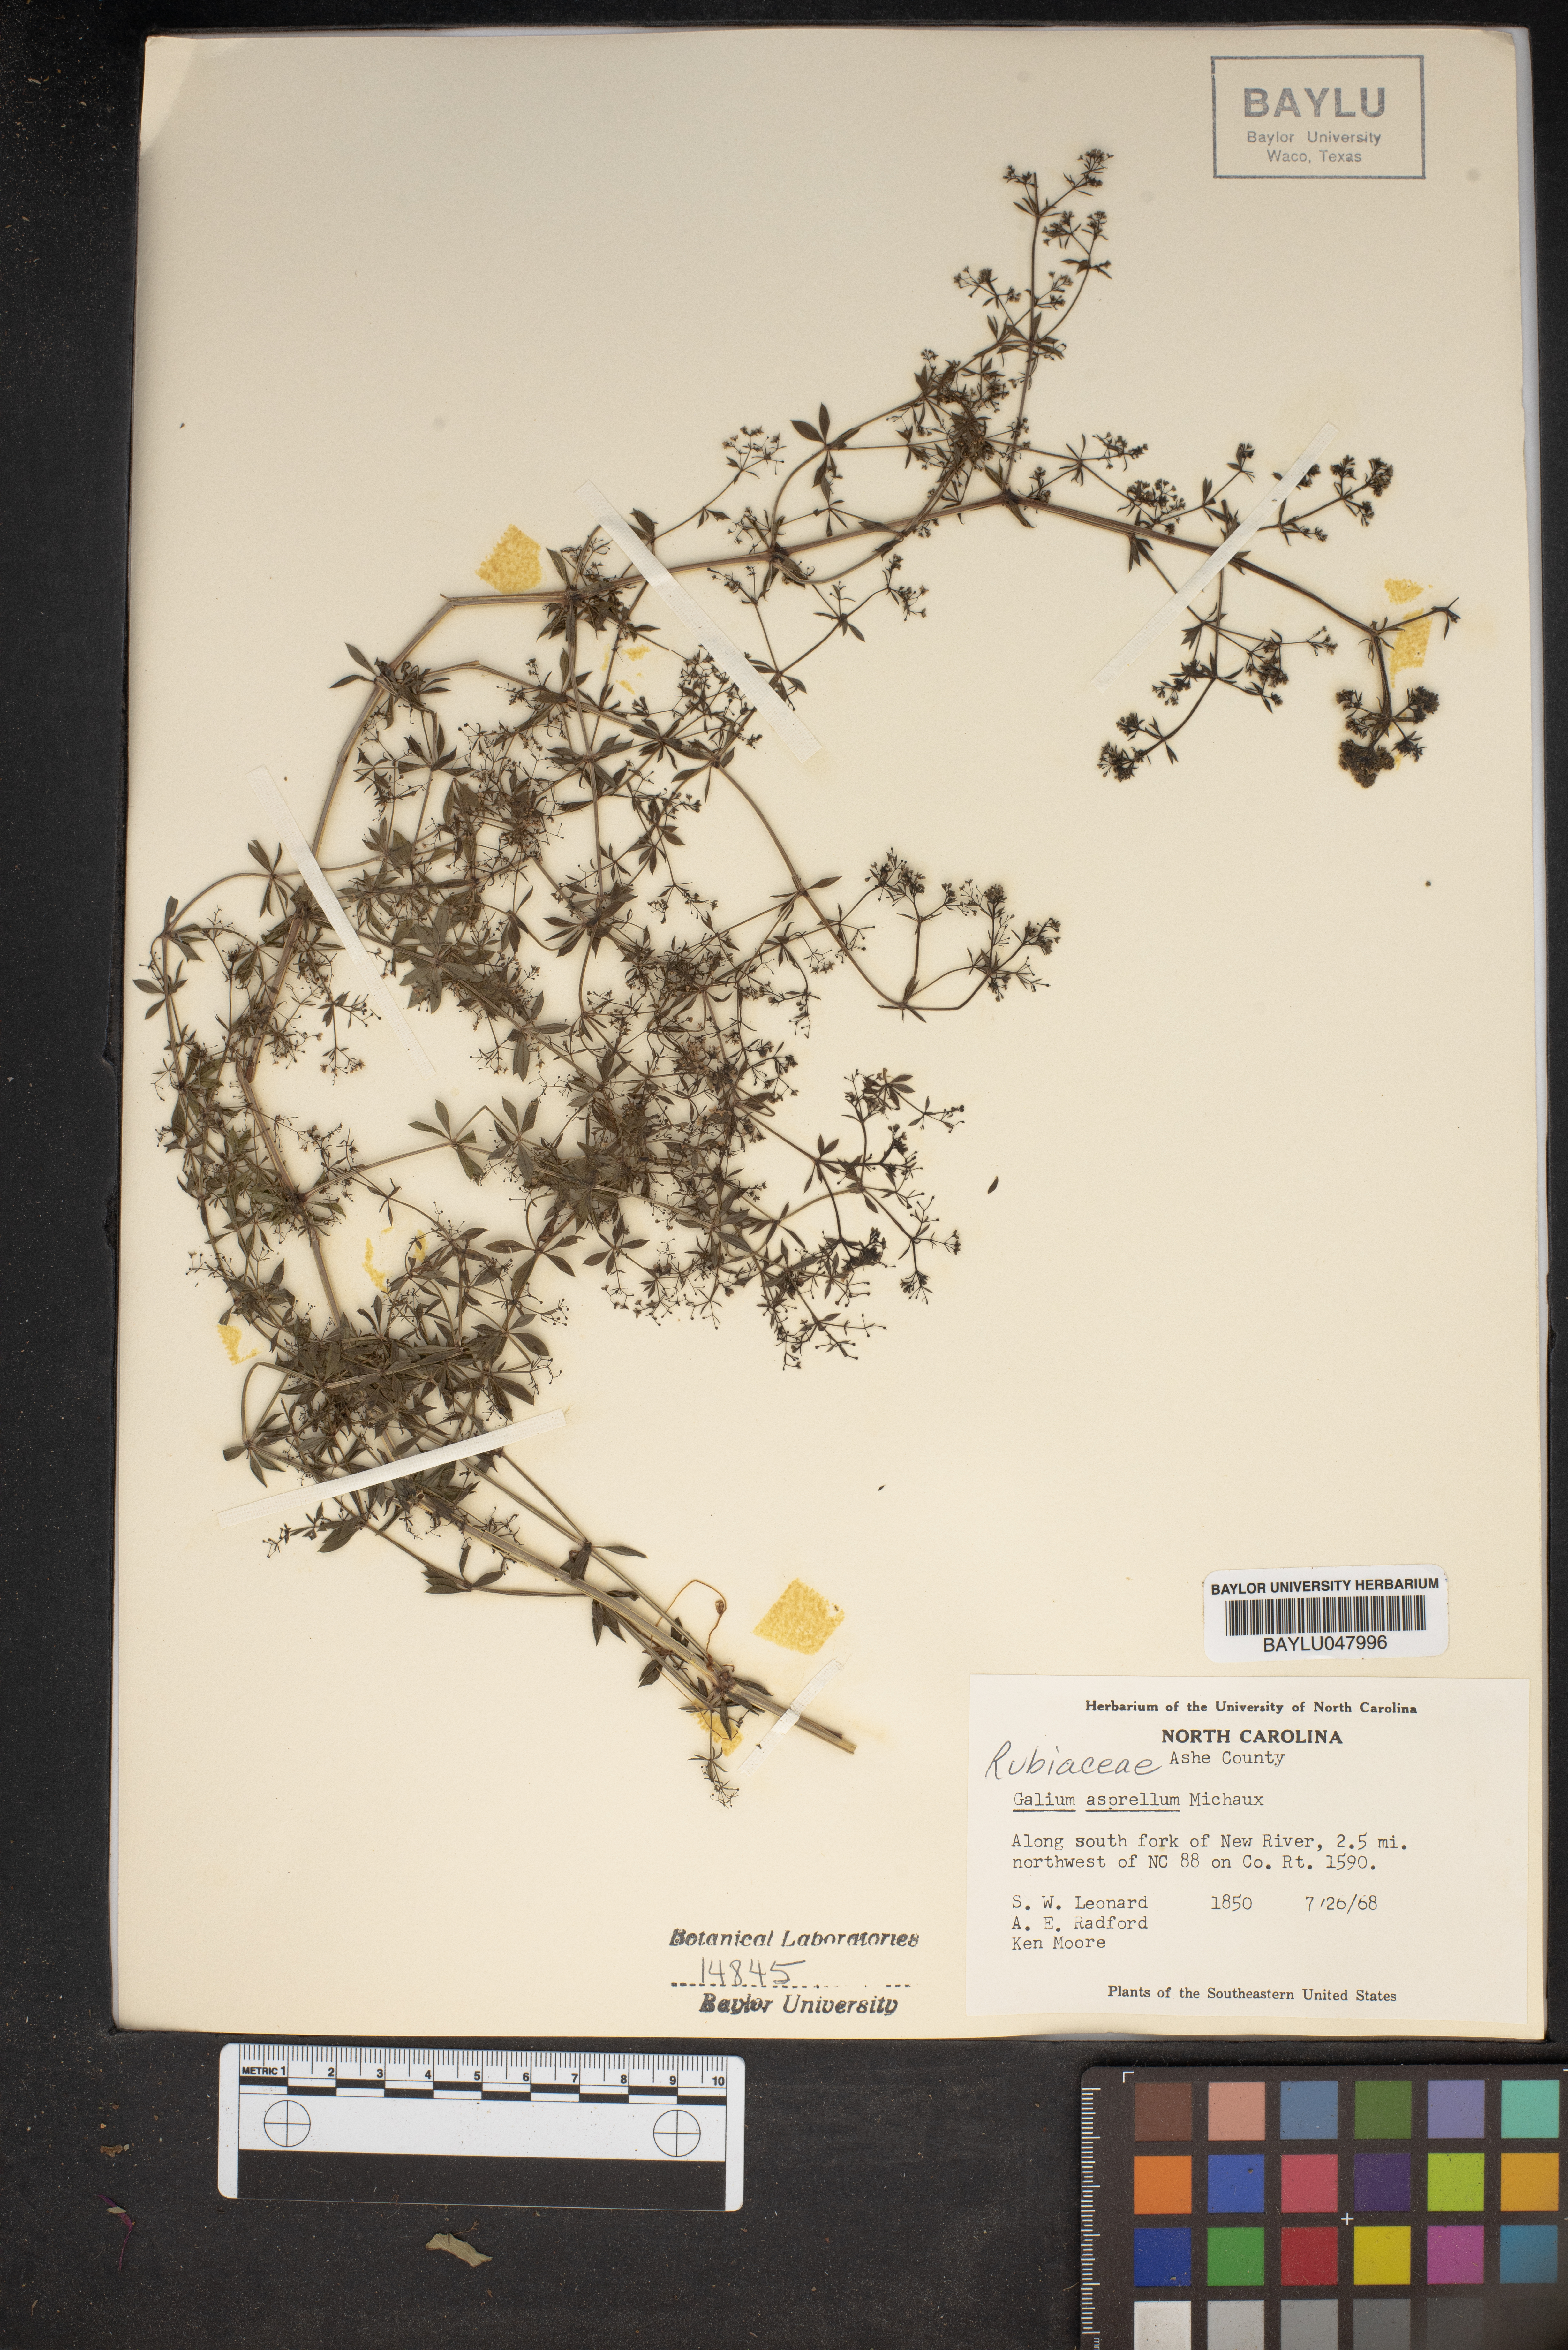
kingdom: Plantae
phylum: Tracheophyta
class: Magnoliopsida
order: Gentianales
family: Rubiaceae
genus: Galium
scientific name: Galium asprellum
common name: Rough bedstraw
